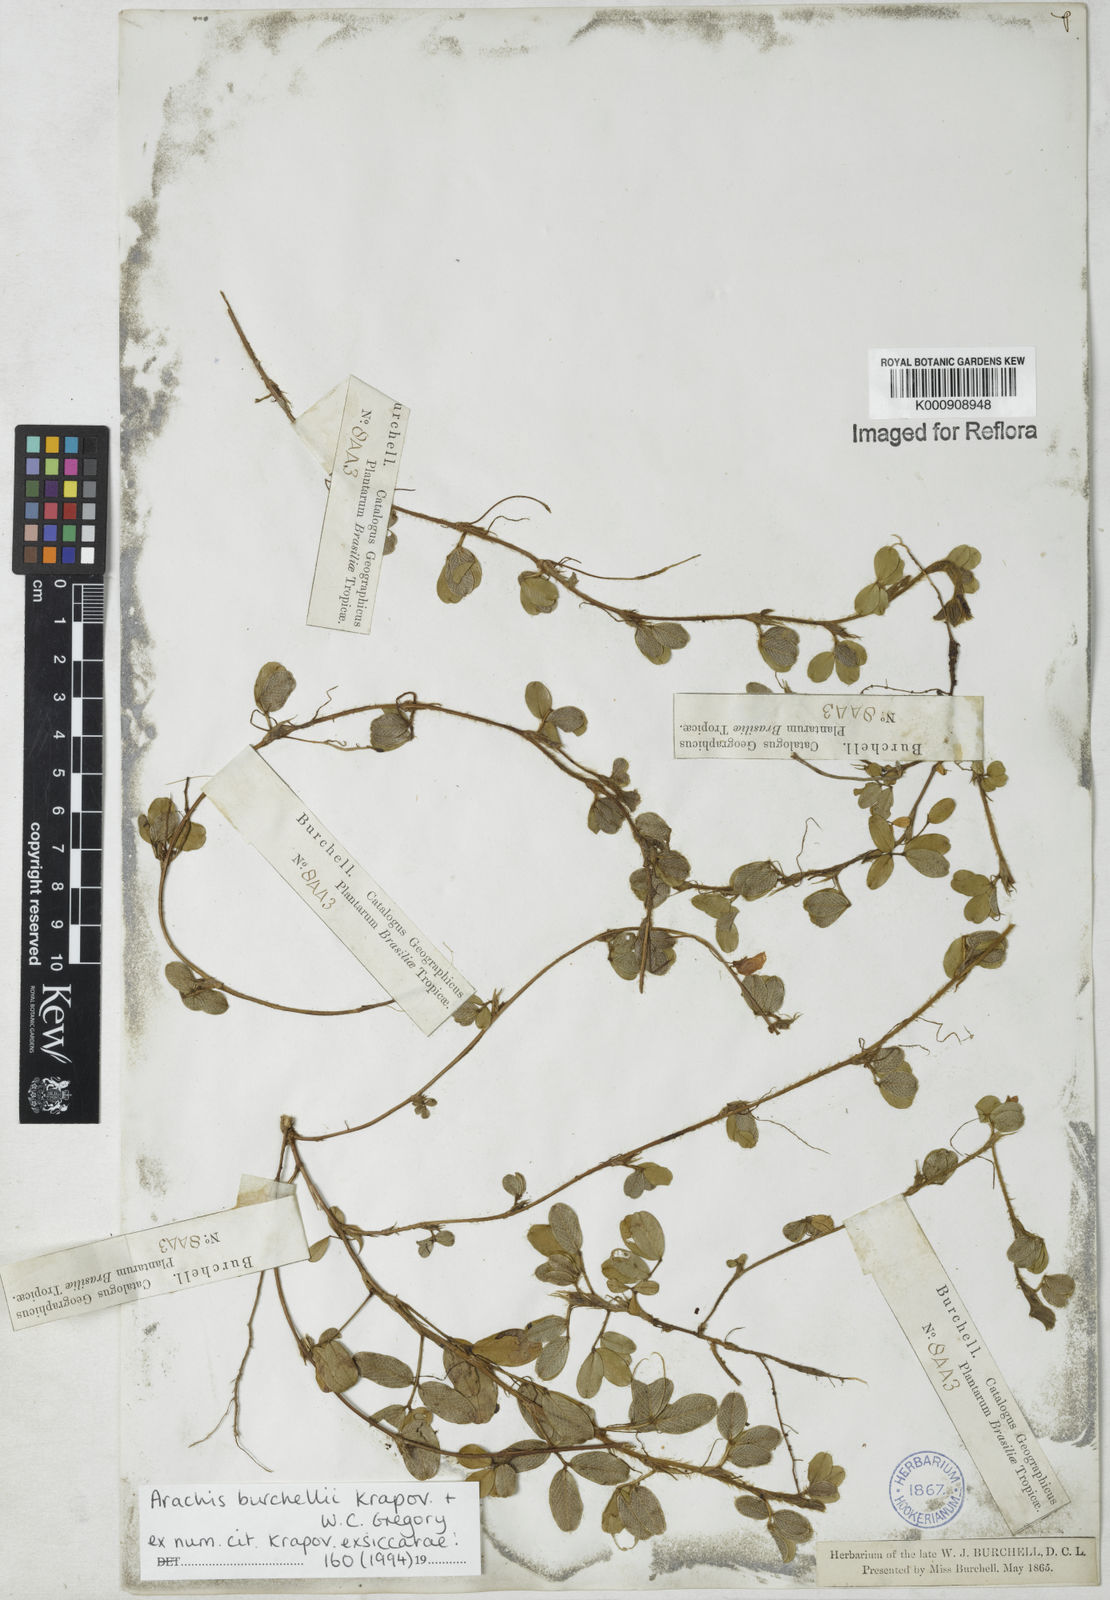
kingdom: Plantae
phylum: Tracheophyta
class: Magnoliopsida
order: Fabales
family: Fabaceae
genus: Arachis
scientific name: Arachis burchellii
